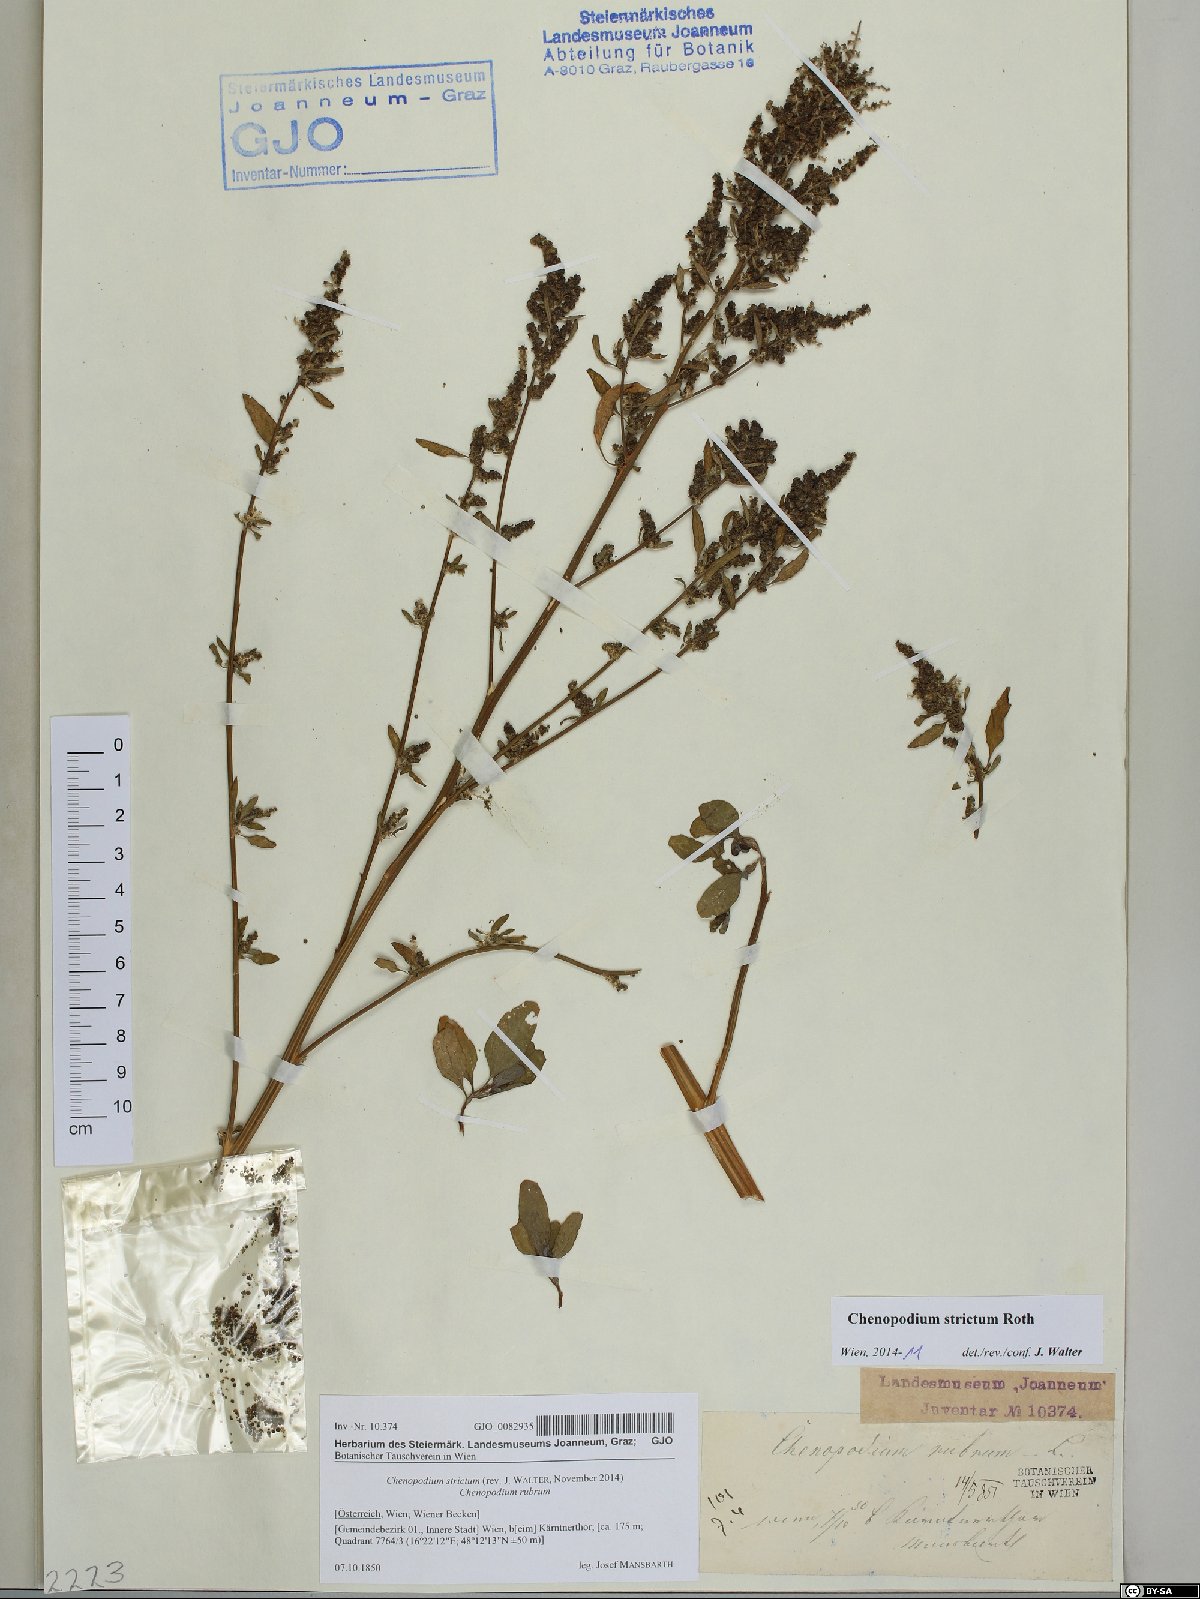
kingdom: Plantae
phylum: Tracheophyta
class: Magnoliopsida
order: Caryophyllales
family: Amaranthaceae
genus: Chenopodium
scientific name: Chenopodium album
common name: Fat-hen
